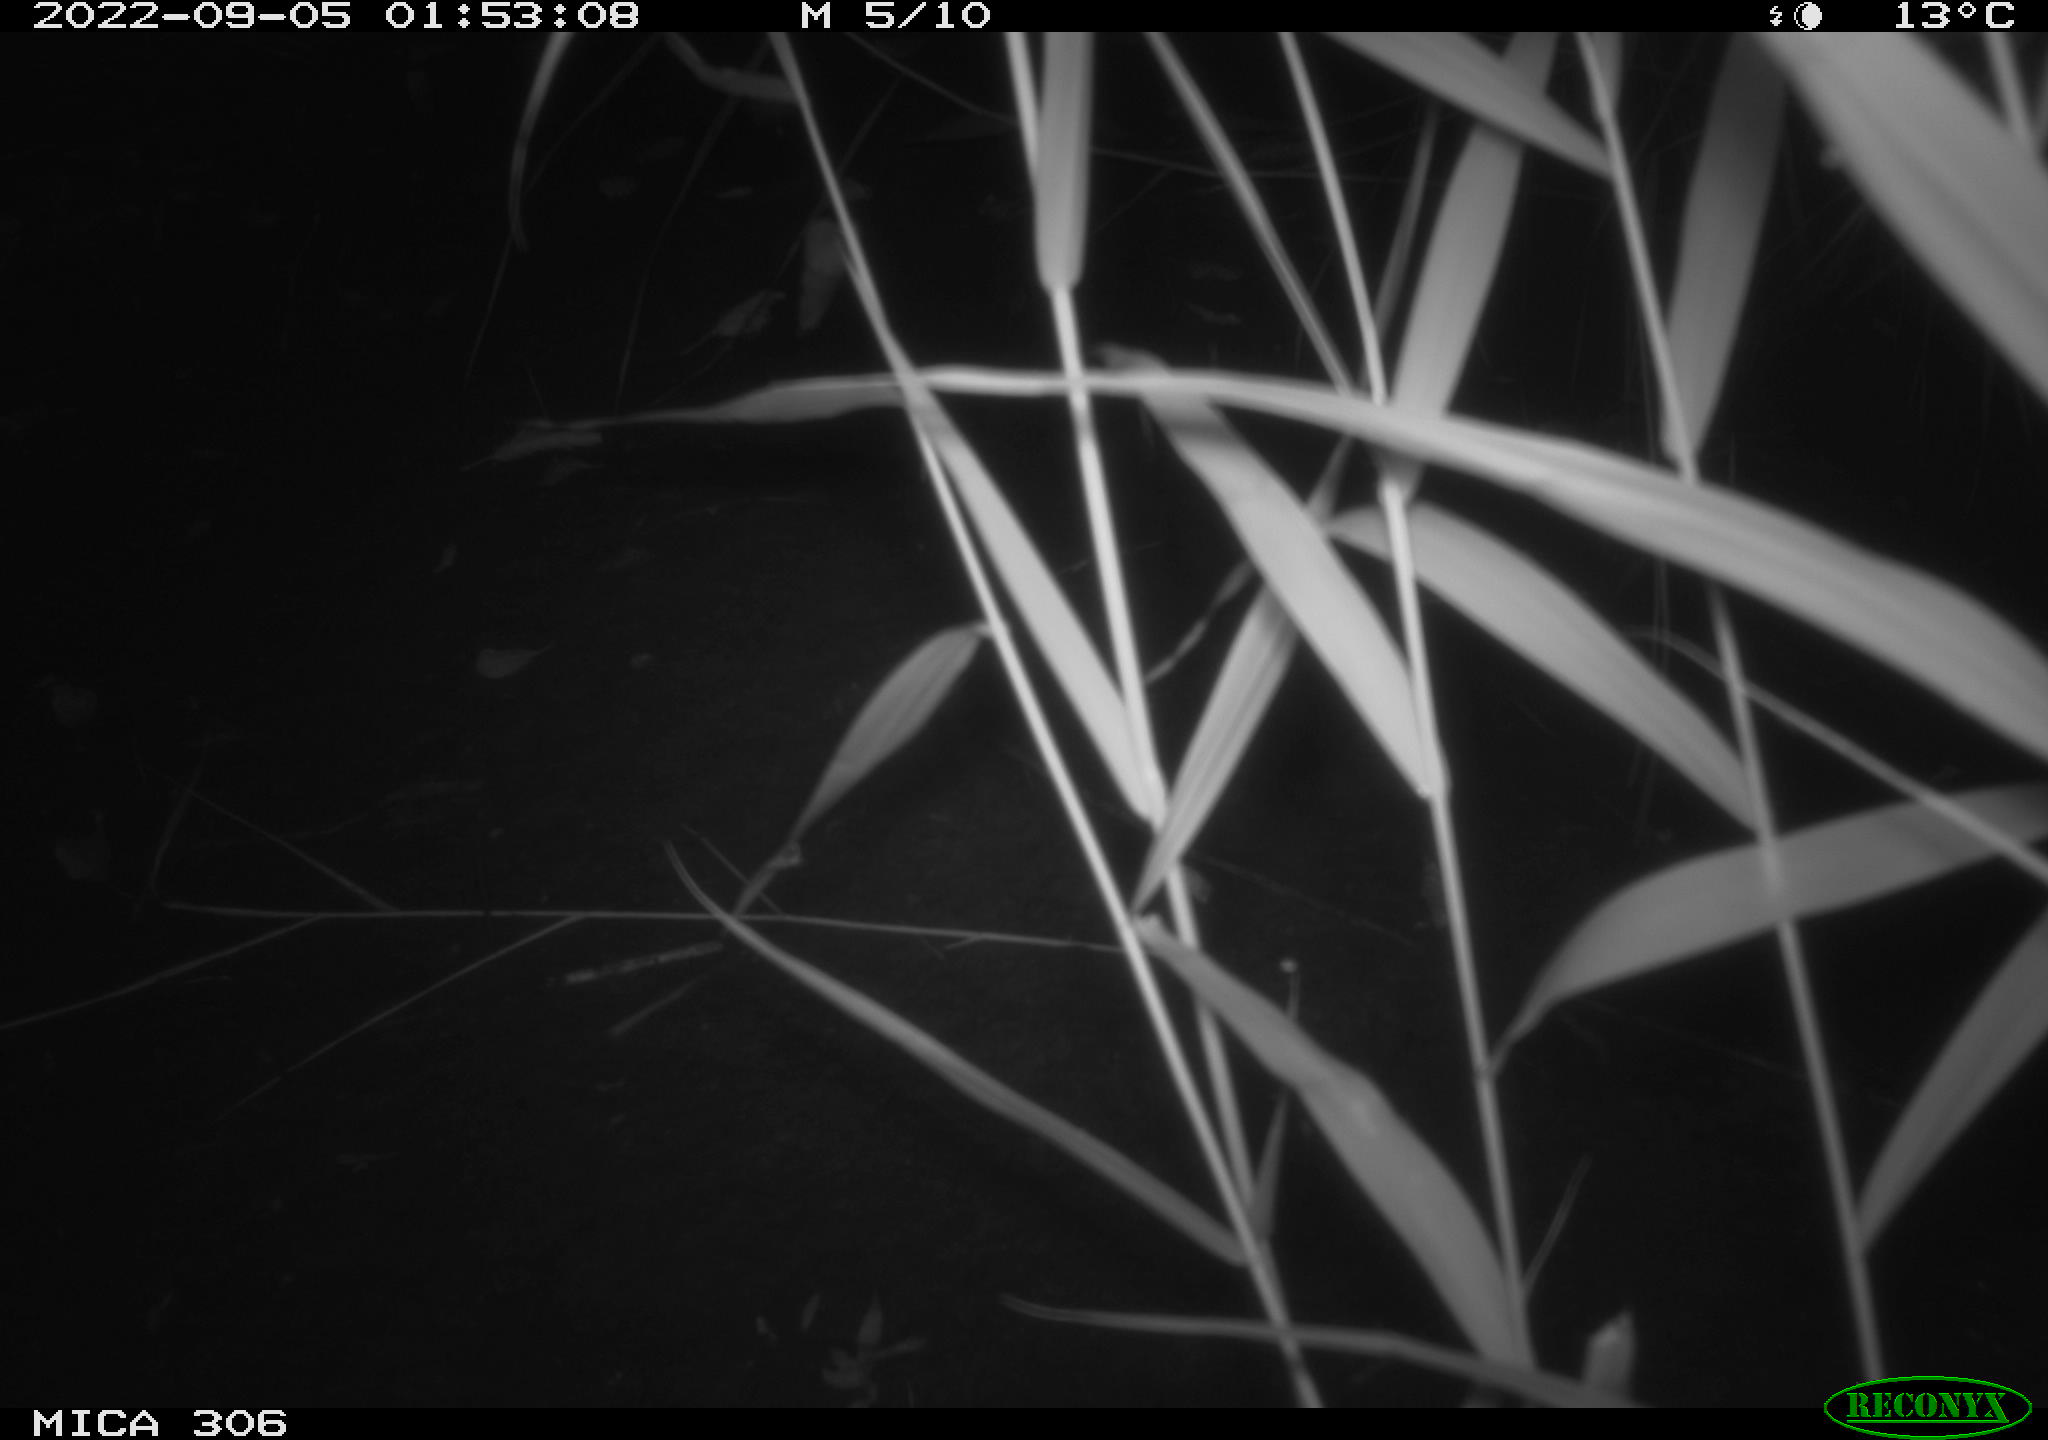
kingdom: Animalia
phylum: Chordata
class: Mammalia
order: Rodentia
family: Muridae
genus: Rattus
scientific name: Rattus norvegicus
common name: Brown rat
